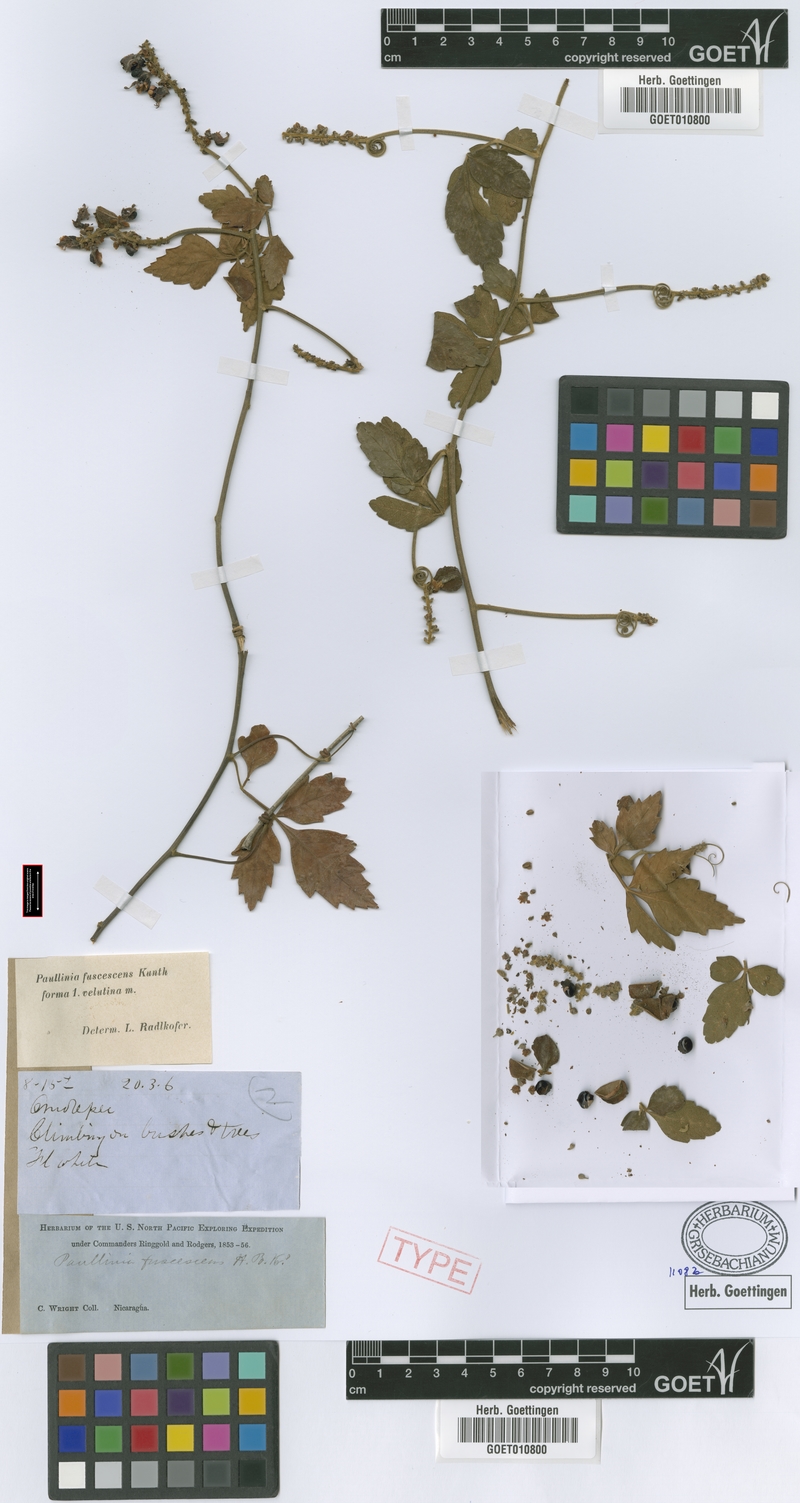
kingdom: Plantae
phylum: Tracheophyta
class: Magnoliopsida
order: Sapindales
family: Sapindaceae
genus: Paullinia
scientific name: Paullinia fuscescens
